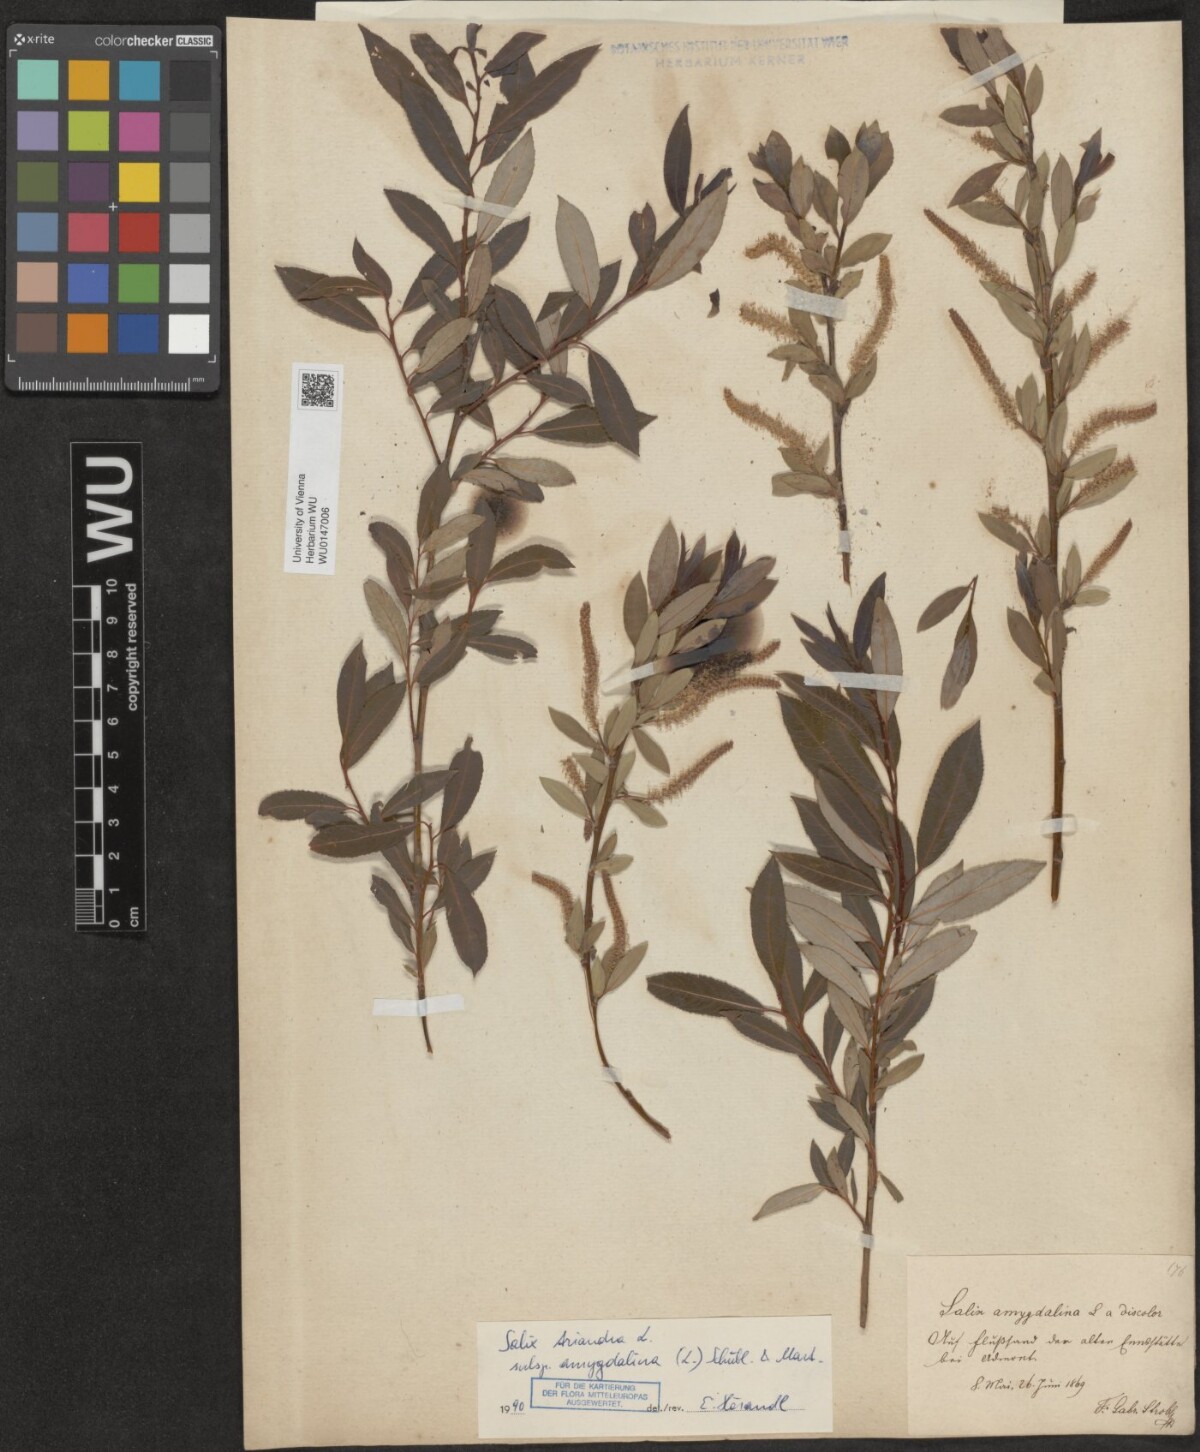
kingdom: Plantae
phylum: Tracheophyta
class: Magnoliopsida
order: Malpighiales
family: Salicaceae
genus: Salix
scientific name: Salix triandra
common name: Almond willow
